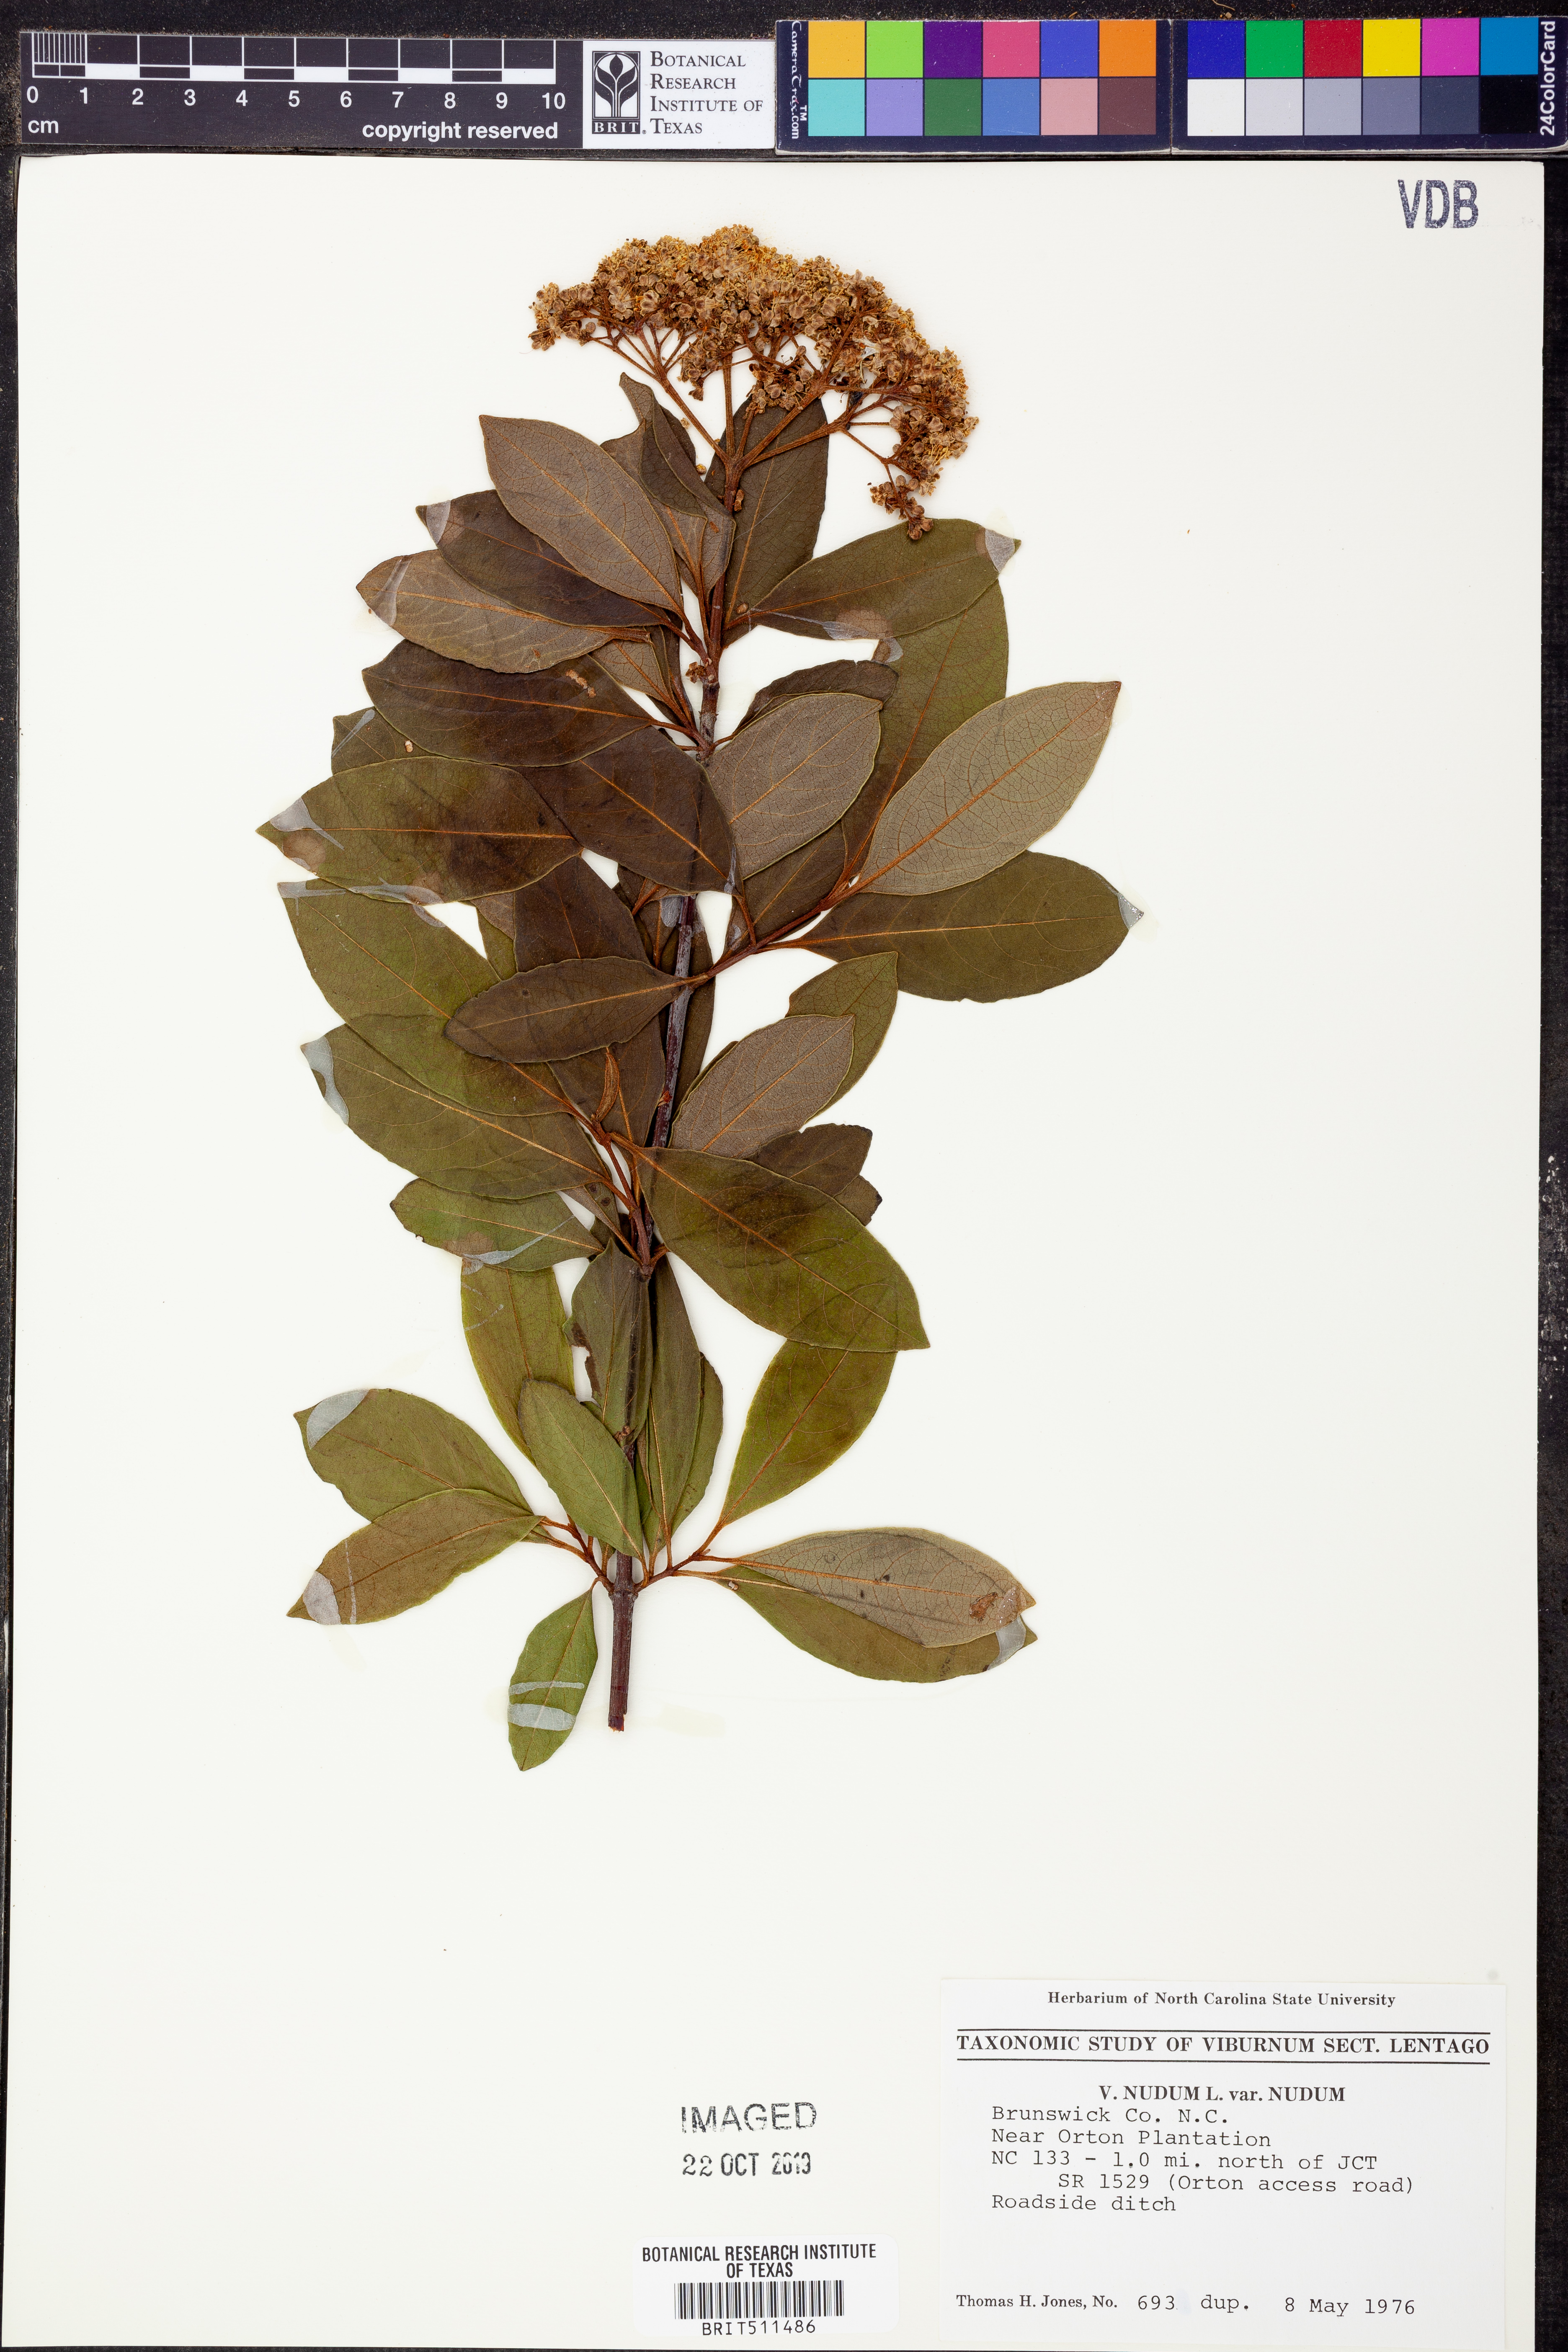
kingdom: Plantae
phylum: Tracheophyta
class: Magnoliopsida
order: Dipsacales
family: Viburnaceae
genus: Viburnum
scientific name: Viburnum nudum
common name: Possum haw
